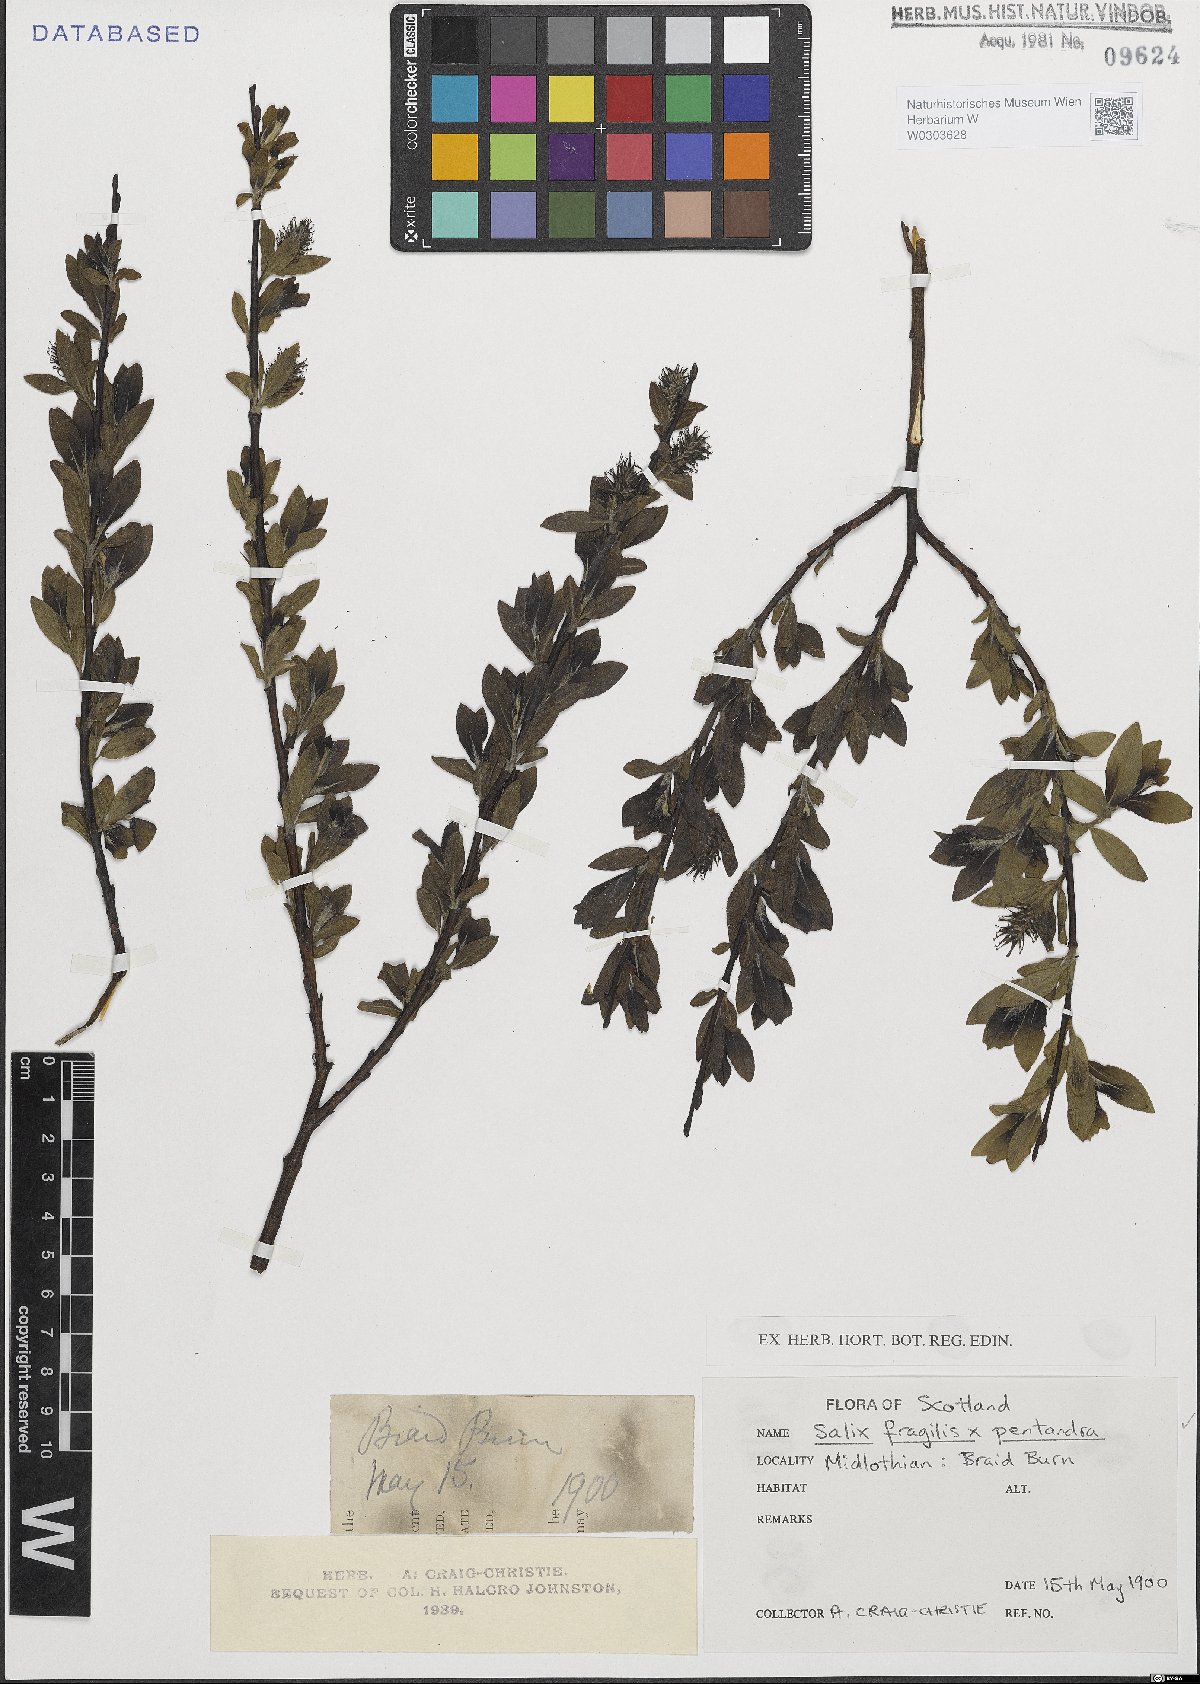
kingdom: Plantae
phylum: Tracheophyta
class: Magnoliopsida
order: Malpighiales
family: Salicaceae
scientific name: Salicaceae
